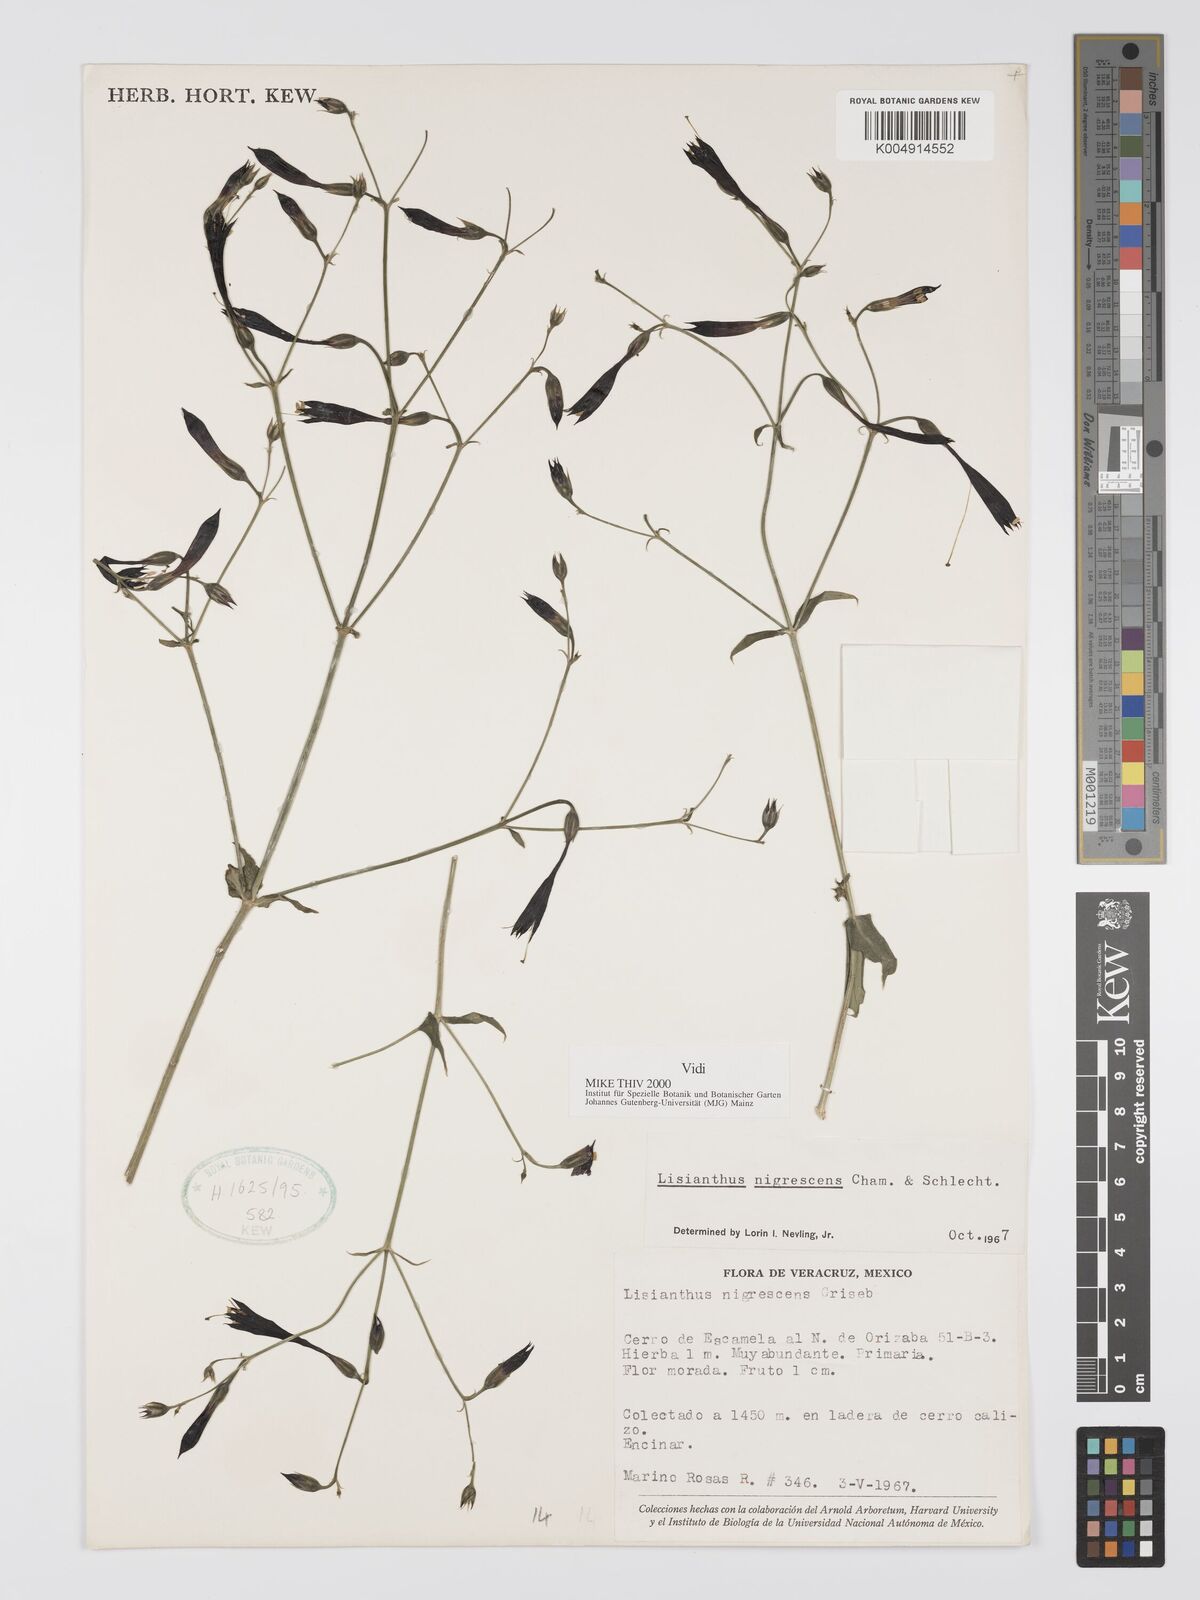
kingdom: Plantae
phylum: Tracheophyta
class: Magnoliopsida
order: Gentianales
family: Gentianaceae
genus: Lisianthus
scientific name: Lisianthus nigrescens
